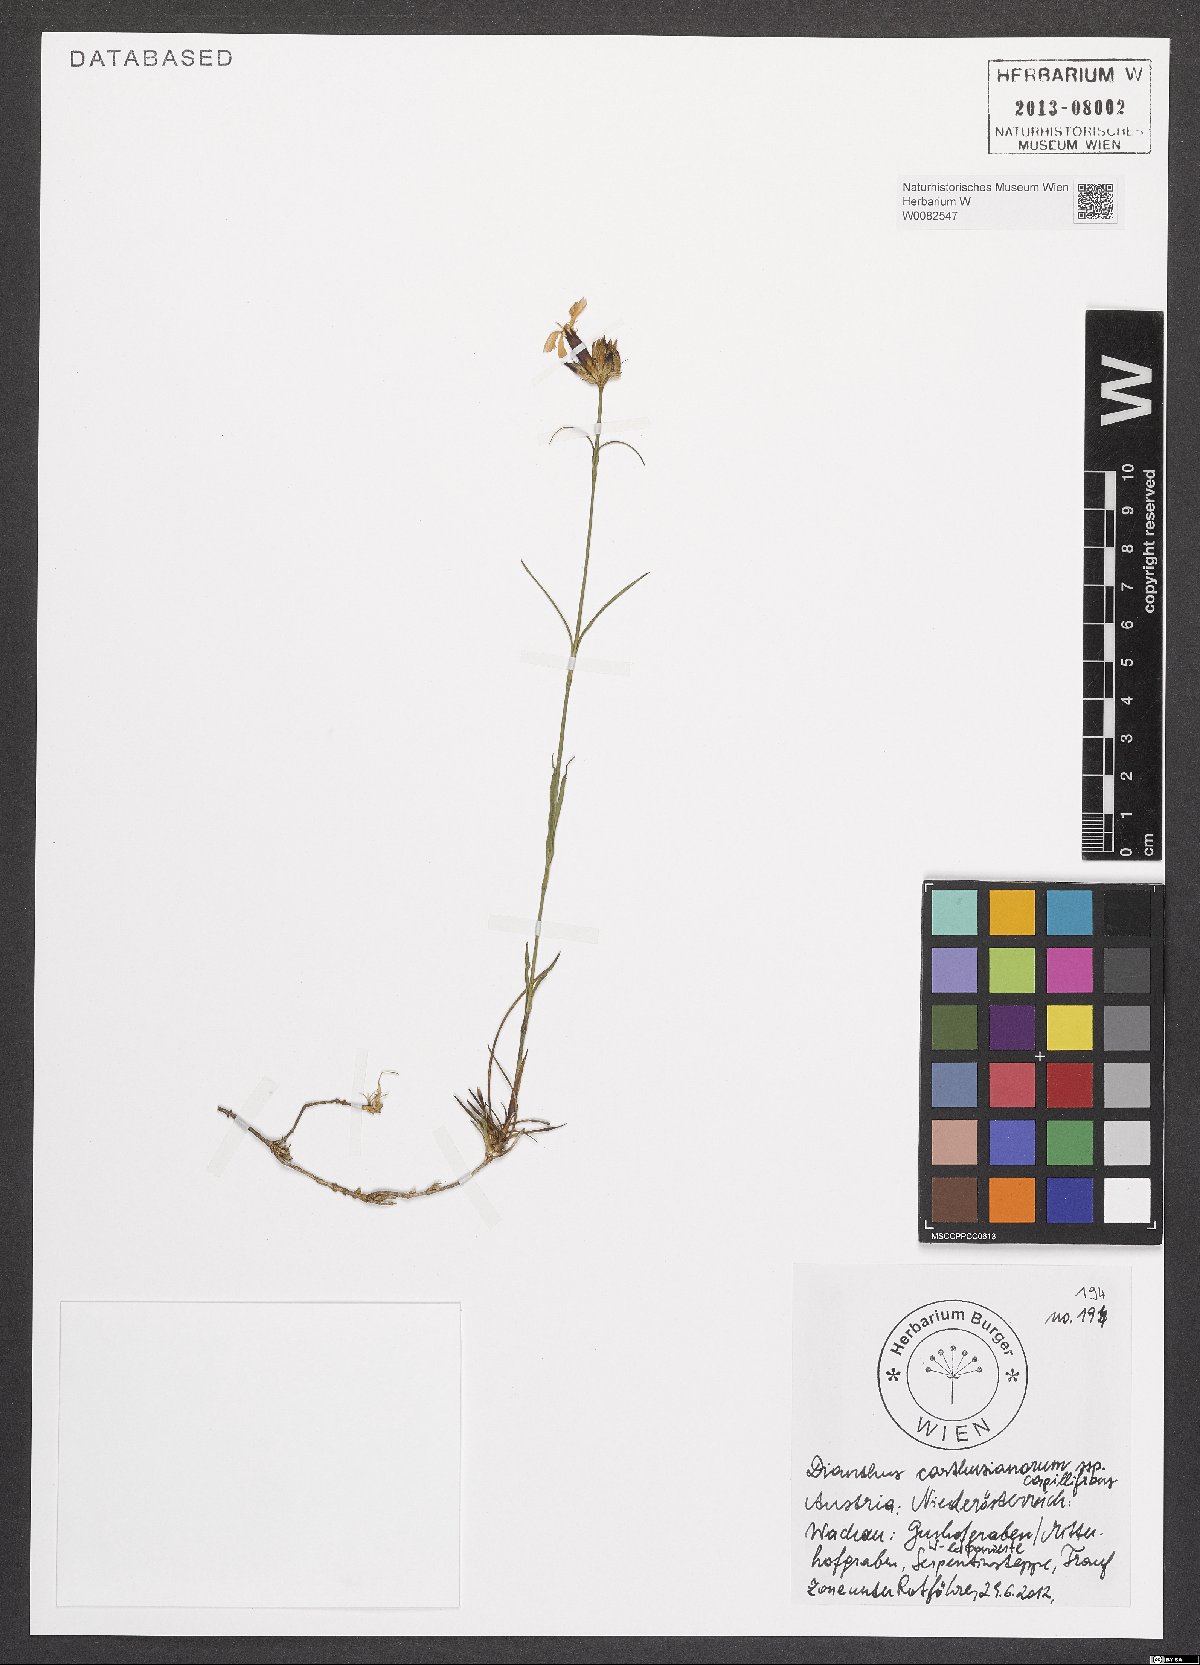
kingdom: Plantae
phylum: Tracheophyta
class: Magnoliopsida
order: Caryophyllales
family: Caryophyllaceae
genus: Dianthus
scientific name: Dianthus carthusianorum
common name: Carthusian pink
